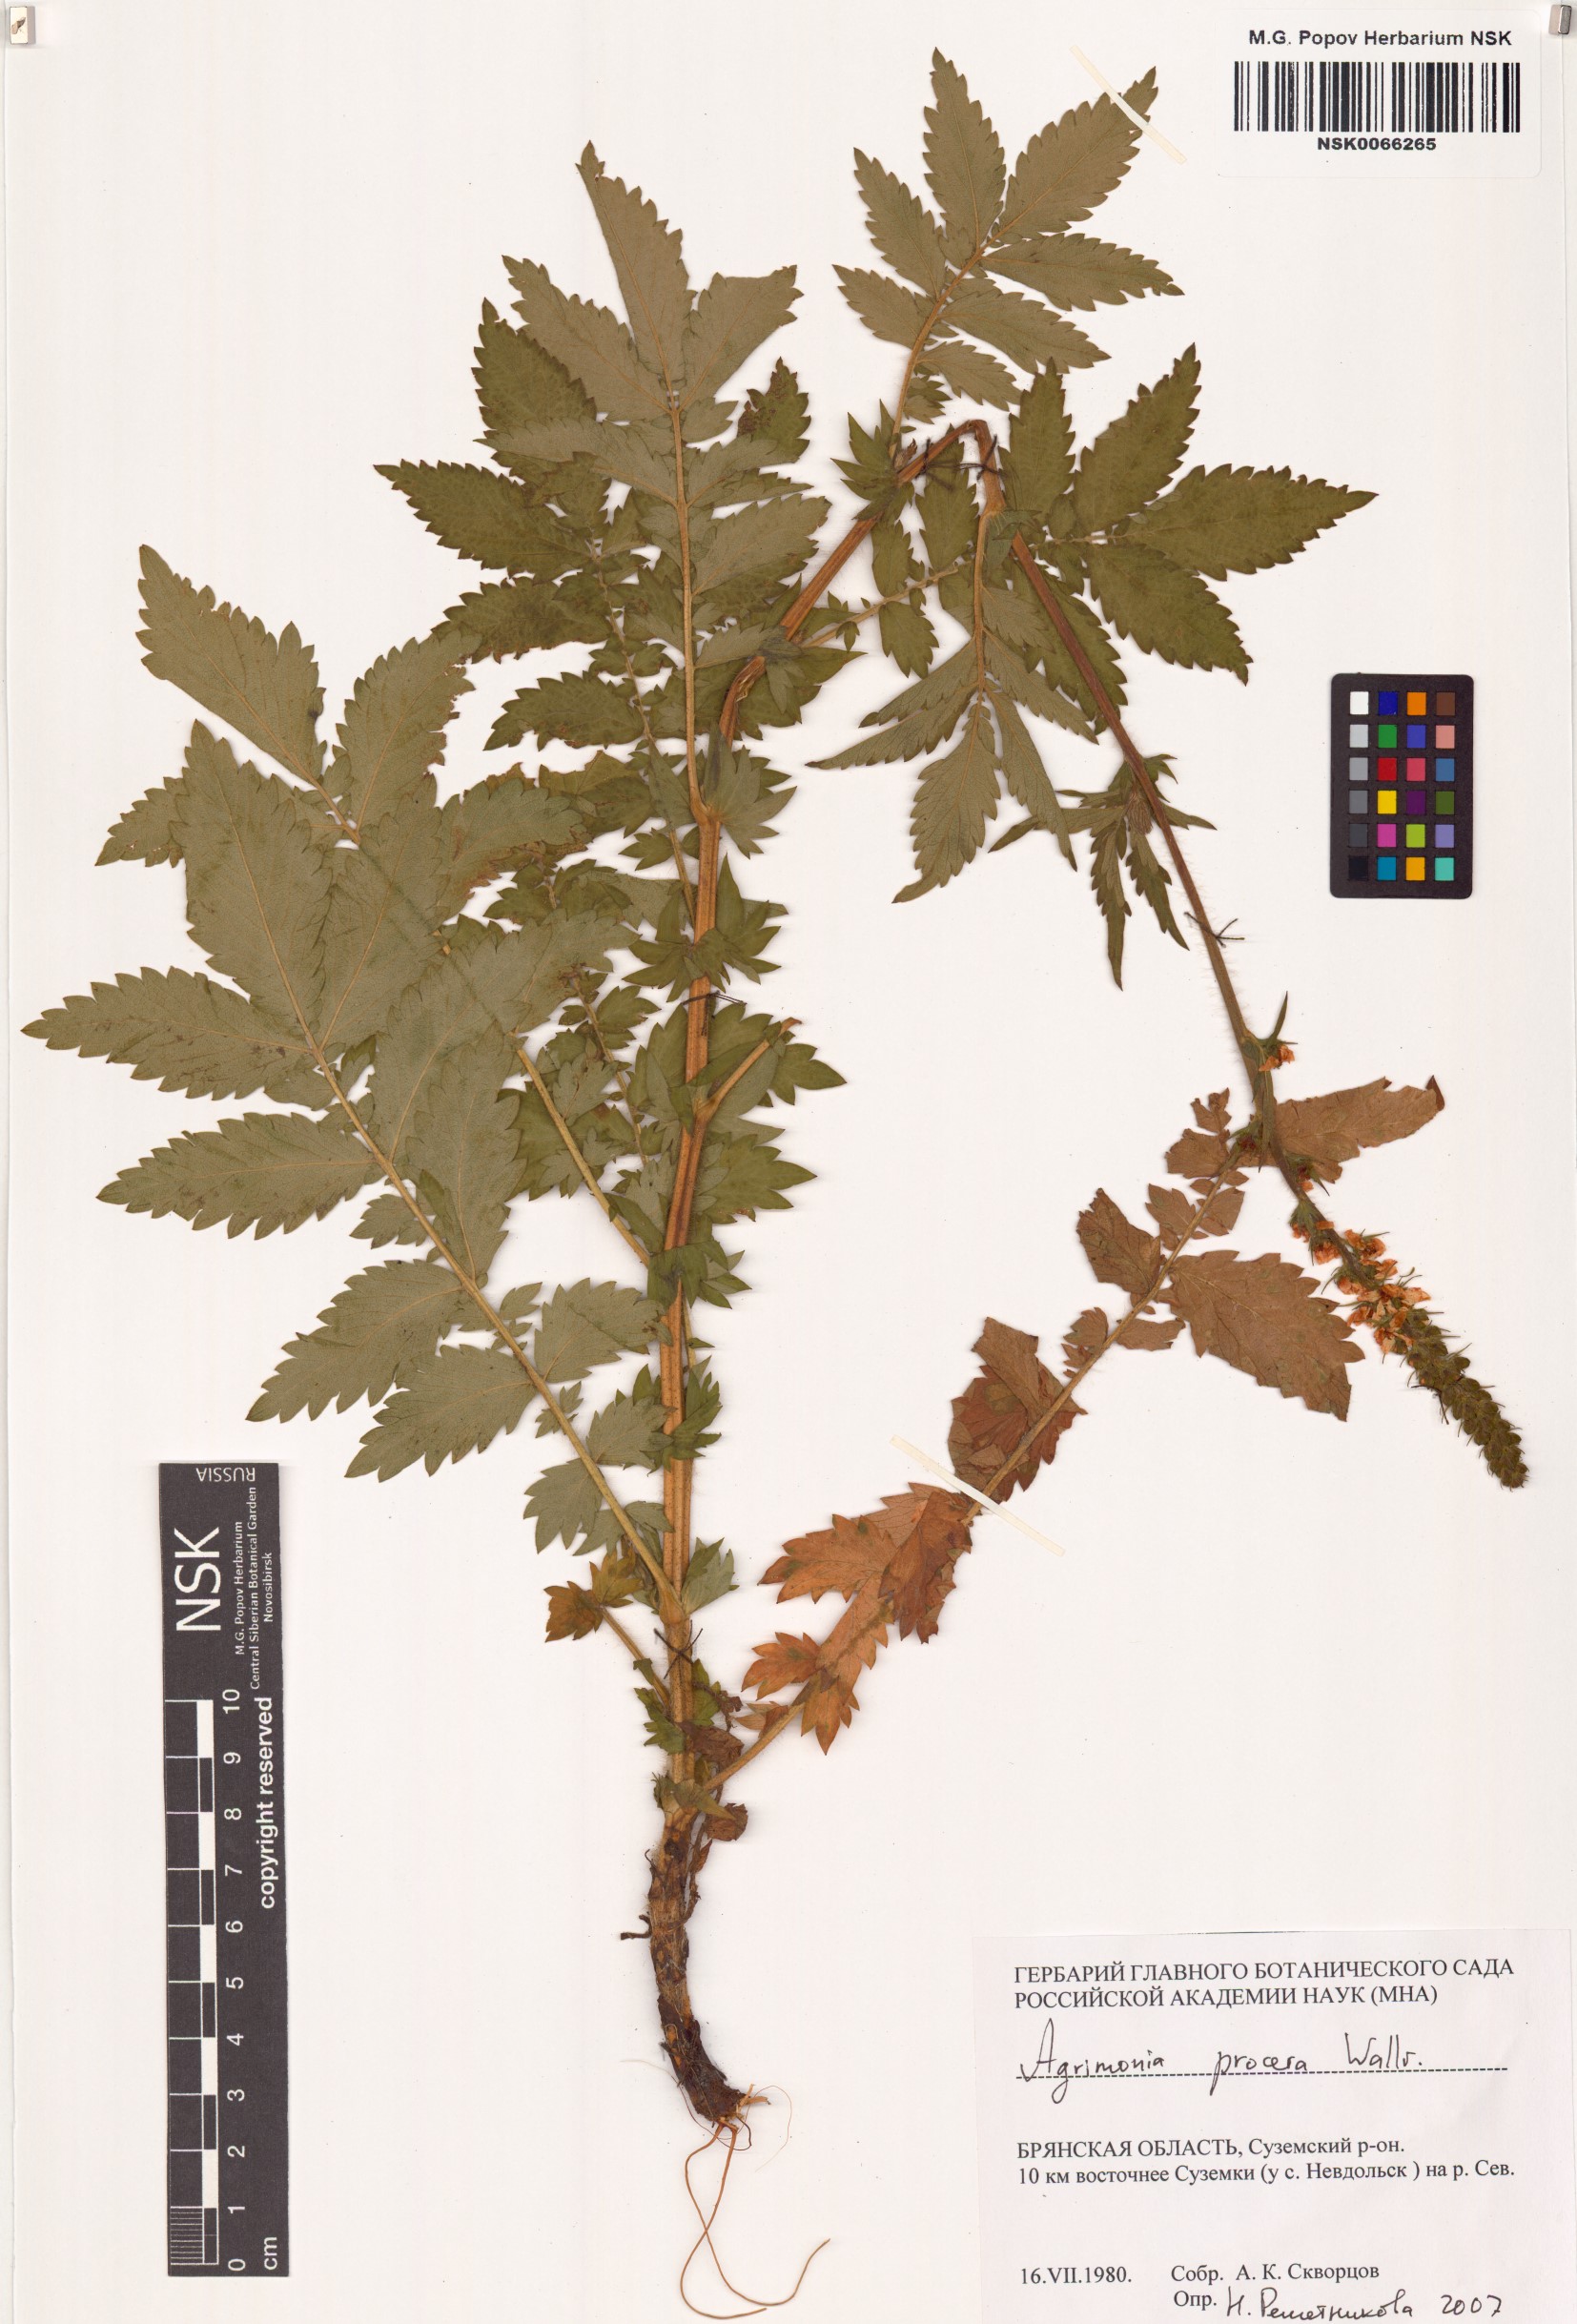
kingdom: Plantae
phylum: Tracheophyta
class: Magnoliopsida
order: Rosales
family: Rosaceae
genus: Agrimonia
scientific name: Agrimonia procera
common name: Fragrant agrimony
